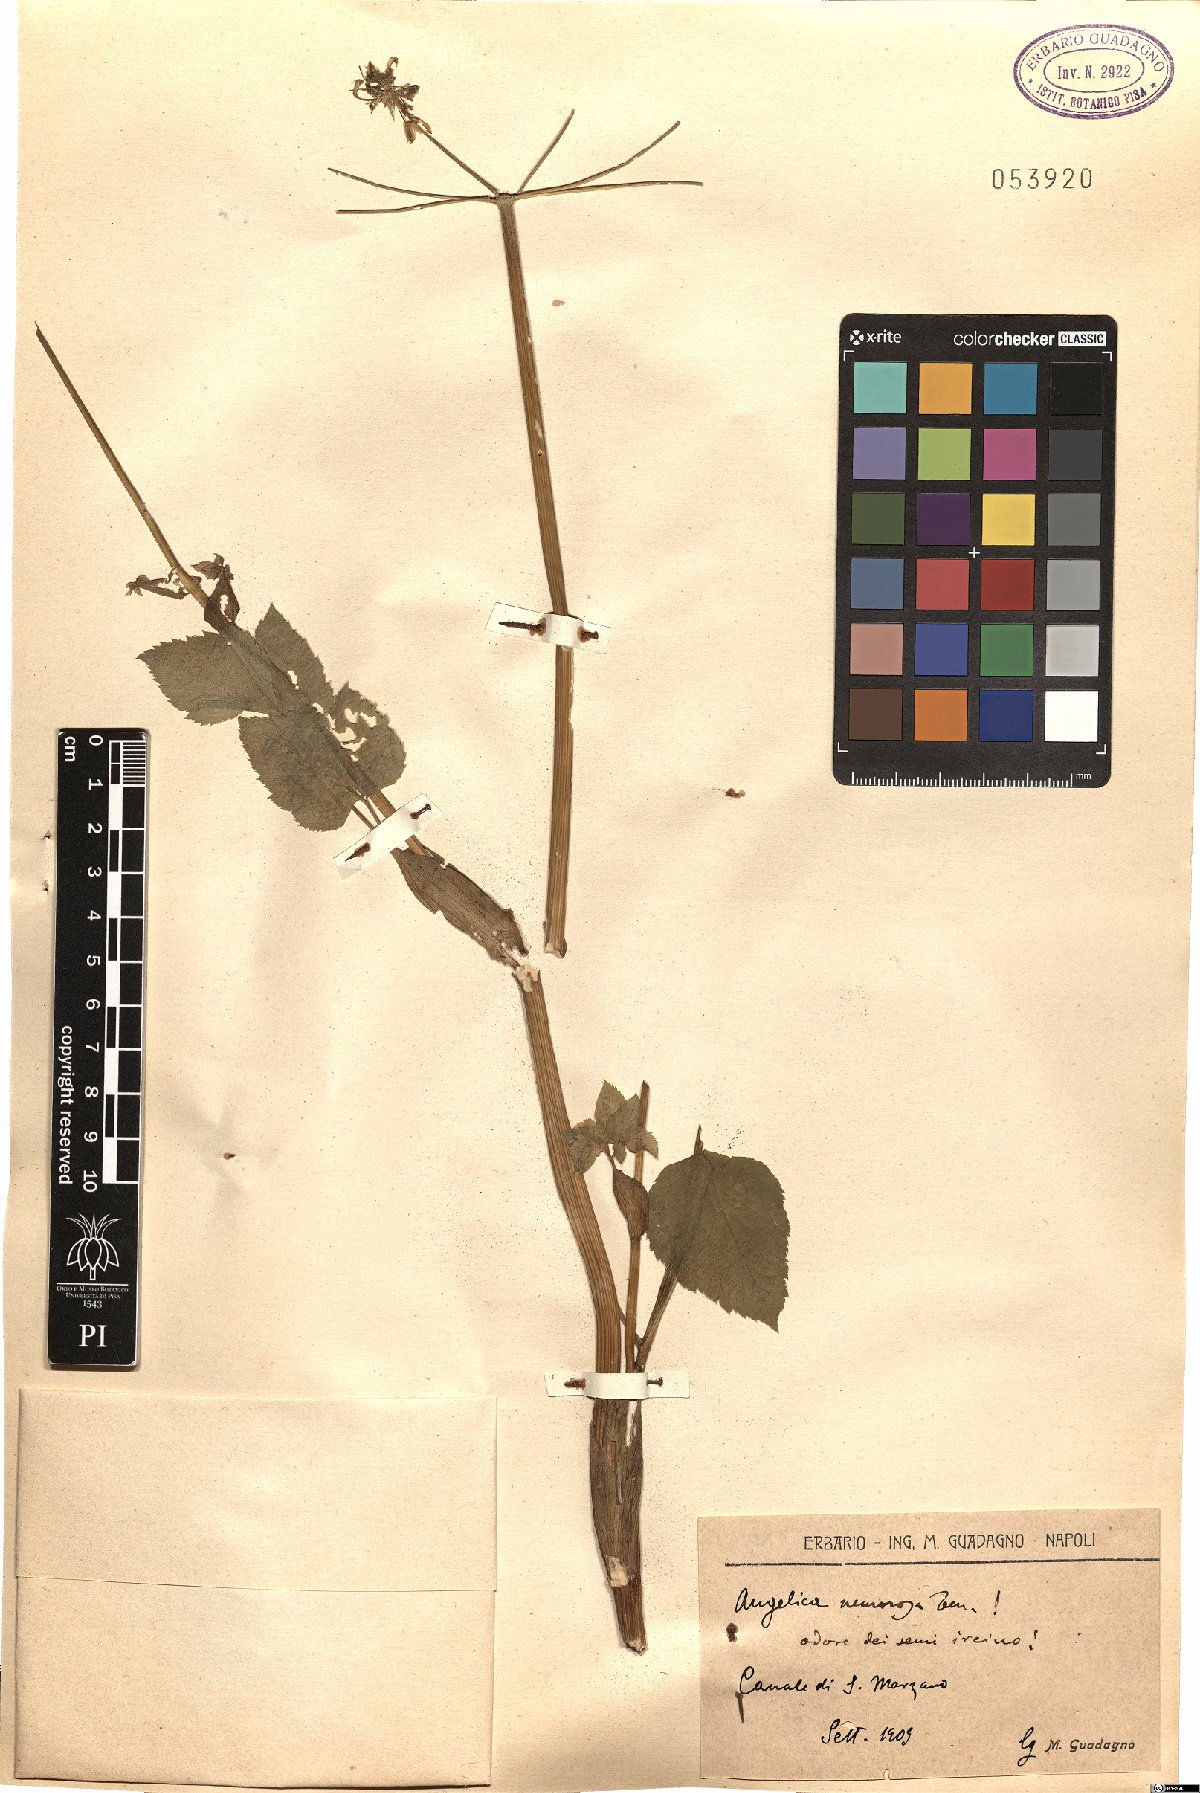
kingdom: Plantae
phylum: Tracheophyta
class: Magnoliopsida
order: Apiales
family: Apiaceae
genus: Angelica
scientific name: Angelica sylvestris
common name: Wild angelica
